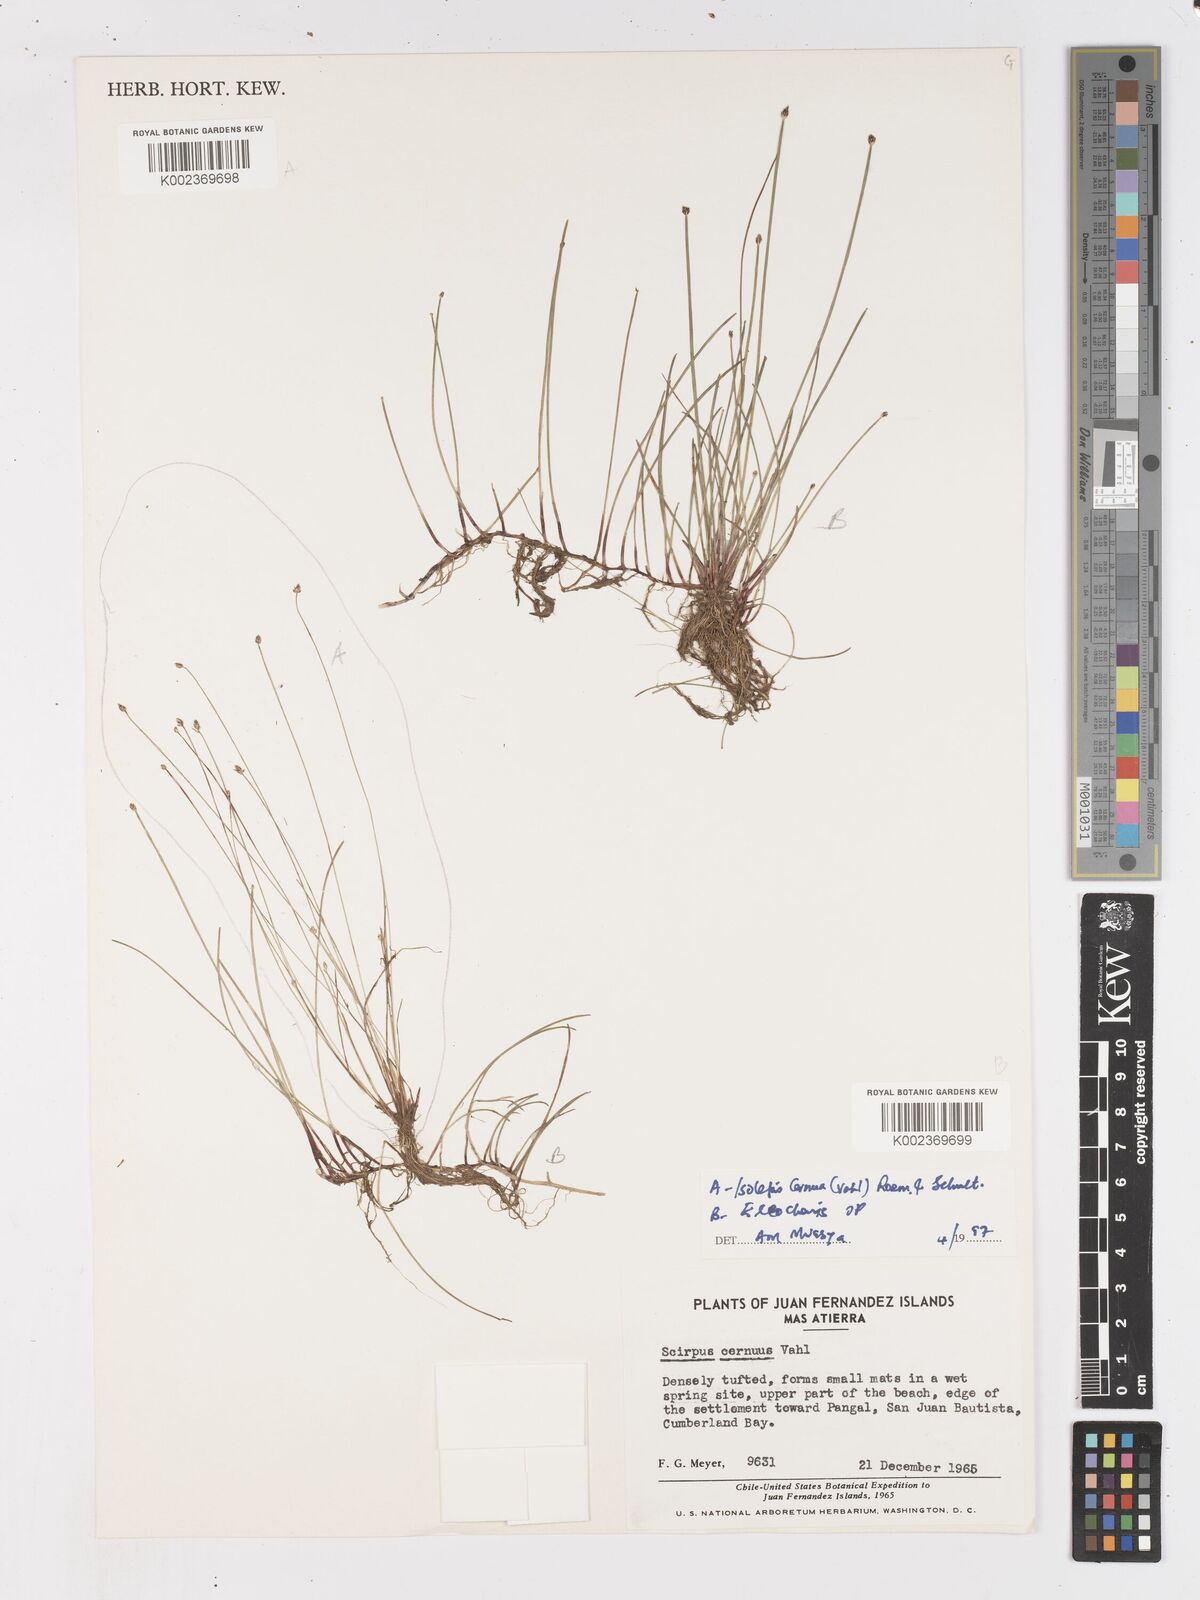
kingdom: Plantae
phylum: Tracheophyta
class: Liliopsida
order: Poales
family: Cyperaceae
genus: Isolepis
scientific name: Isolepis cernua
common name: Slender club-rush
